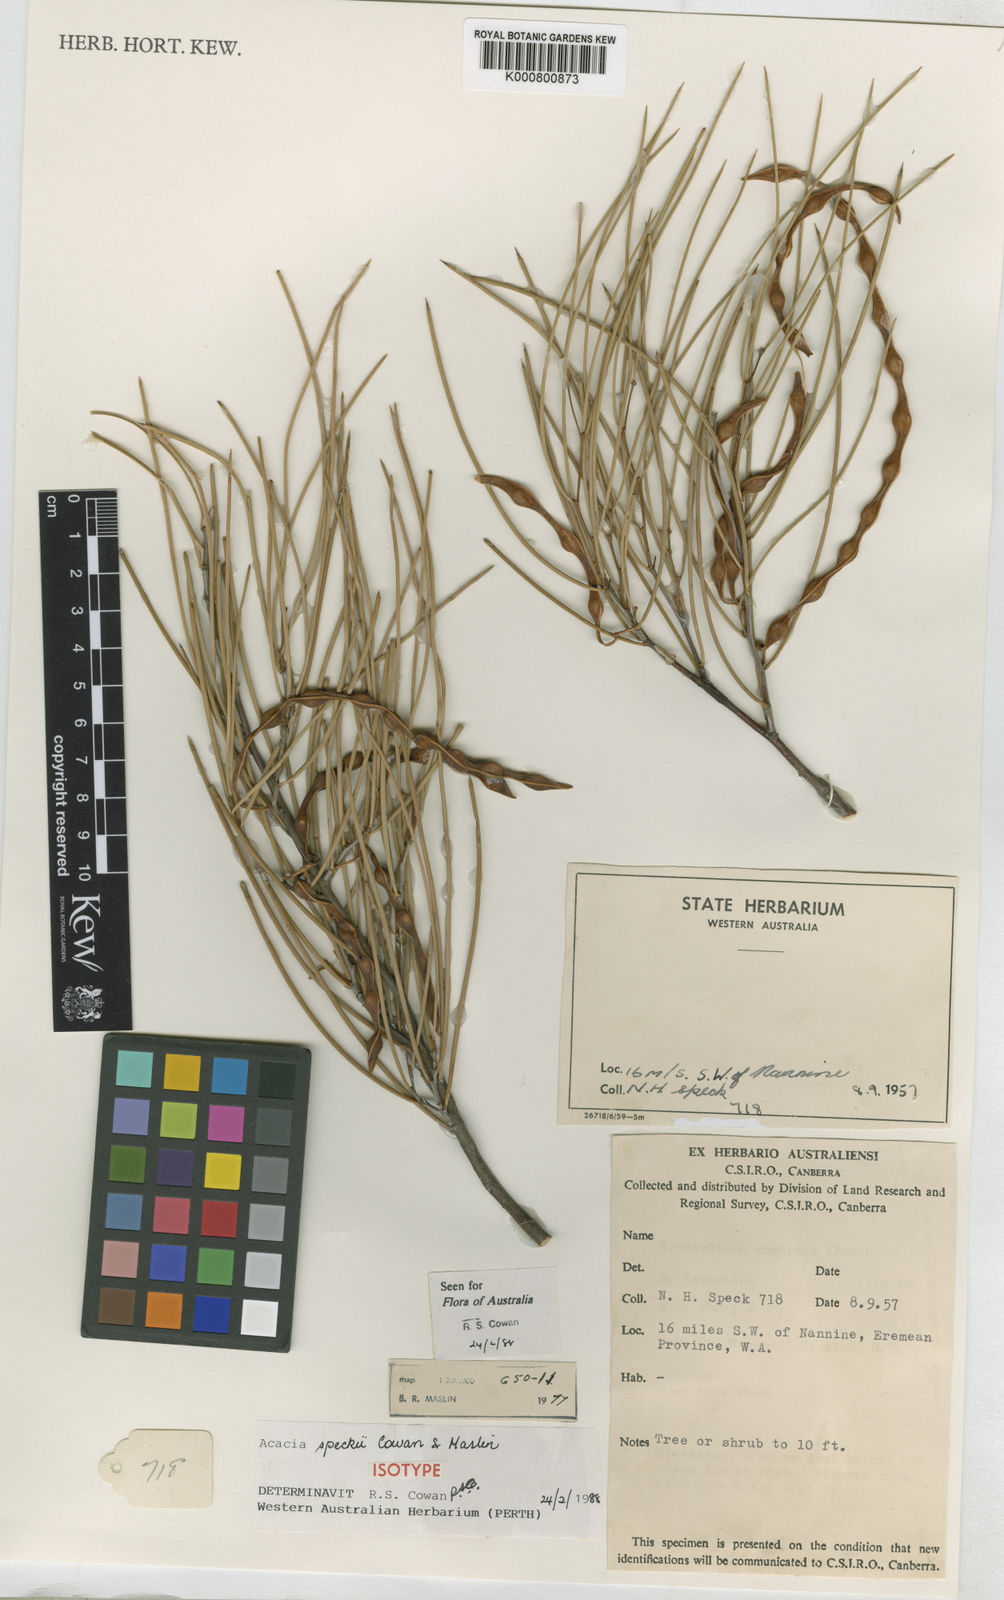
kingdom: Plantae
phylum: Tracheophyta
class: Magnoliopsida
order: Fabales
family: Fabaceae
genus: Acacia
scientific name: Acacia speckii
